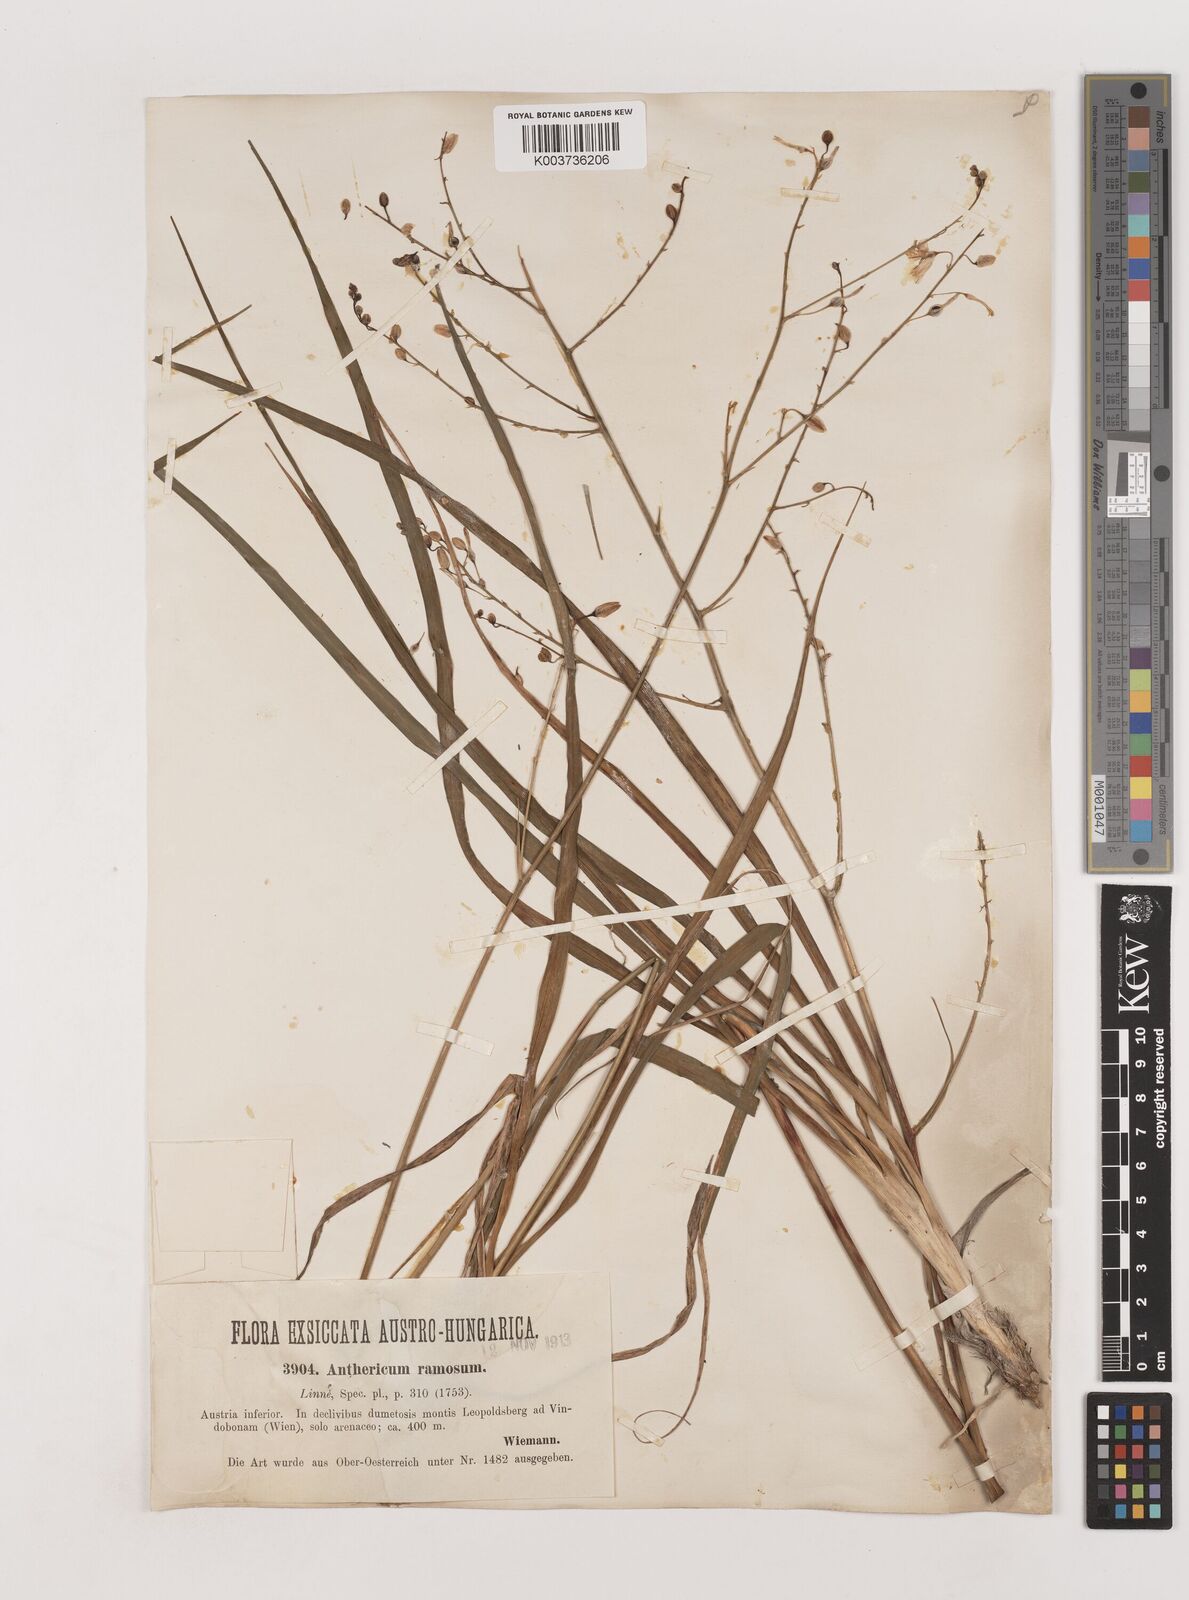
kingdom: Plantae
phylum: Tracheophyta
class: Liliopsida
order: Asparagales
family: Asparagaceae
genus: Anthericum
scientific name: Anthericum
